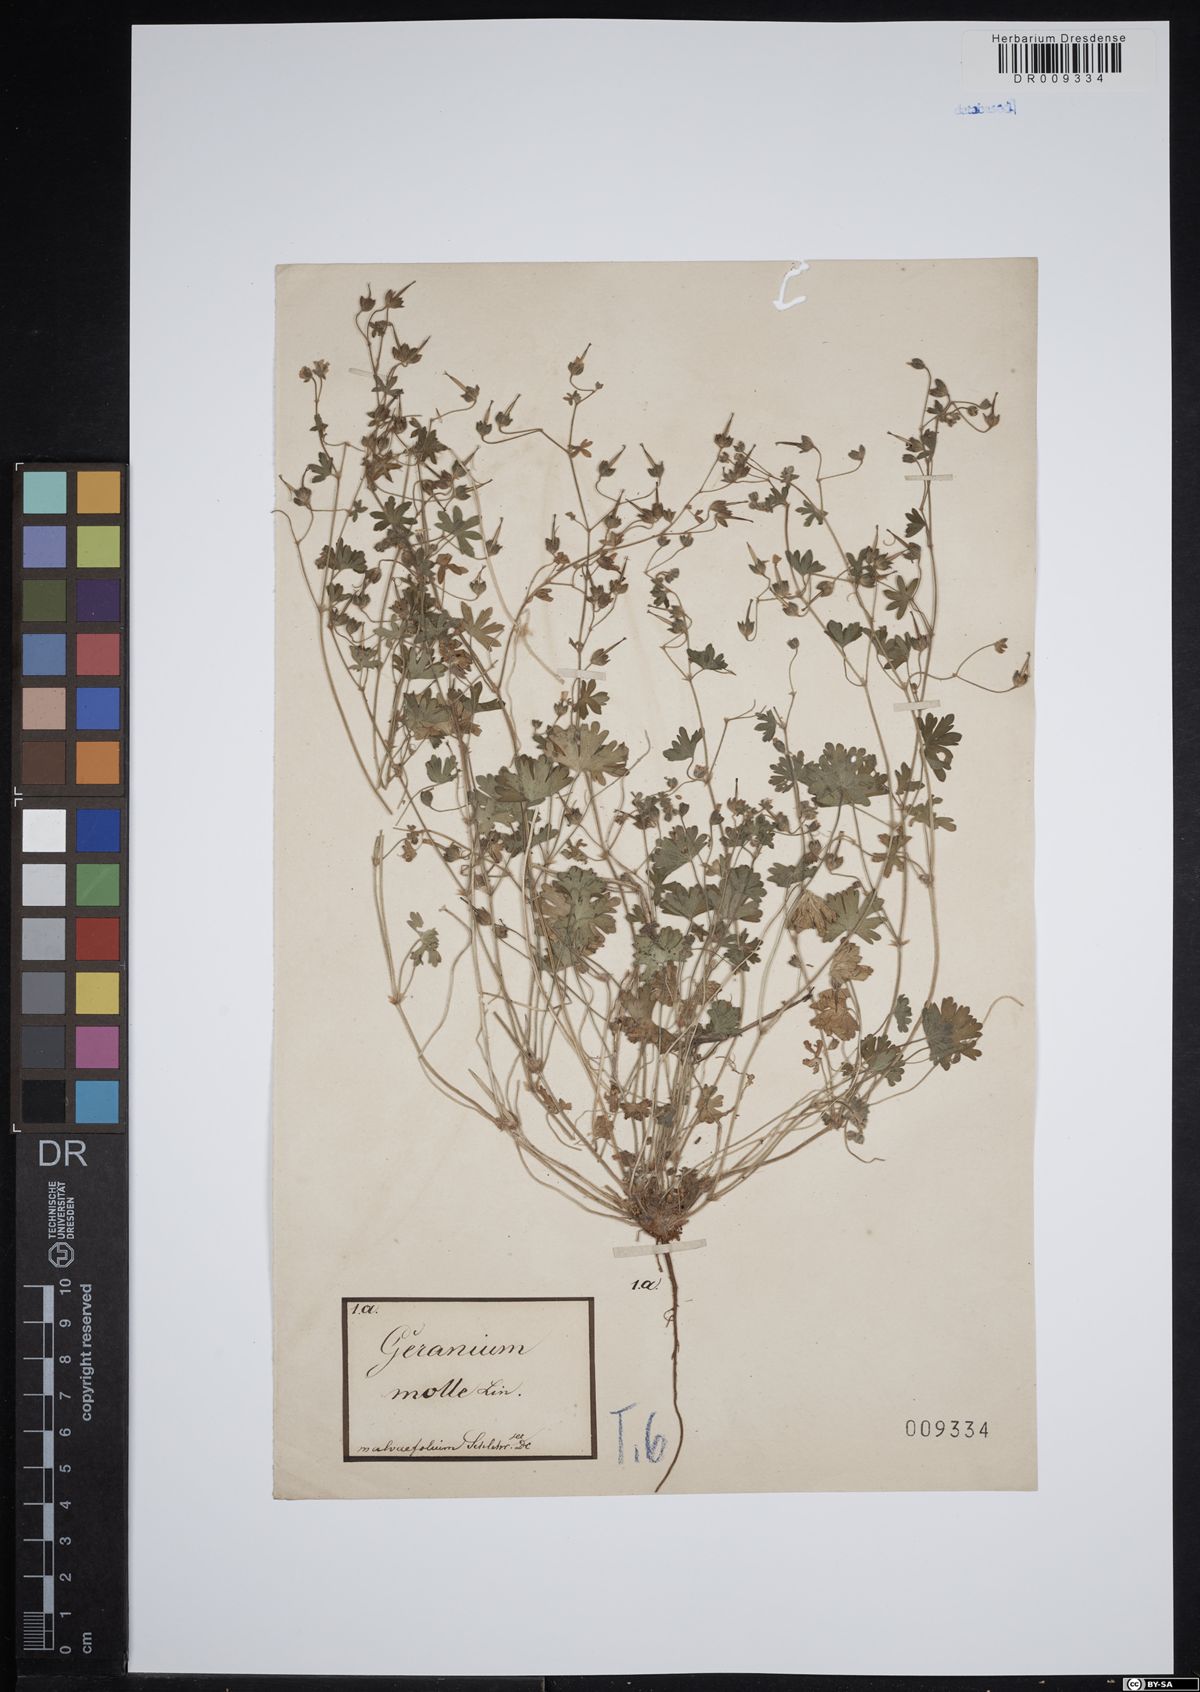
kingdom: Plantae
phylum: Tracheophyta
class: Magnoliopsida
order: Geraniales
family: Geraniaceae
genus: Geranium
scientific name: Geranium molle
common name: Dove's-foot crane's-bill
